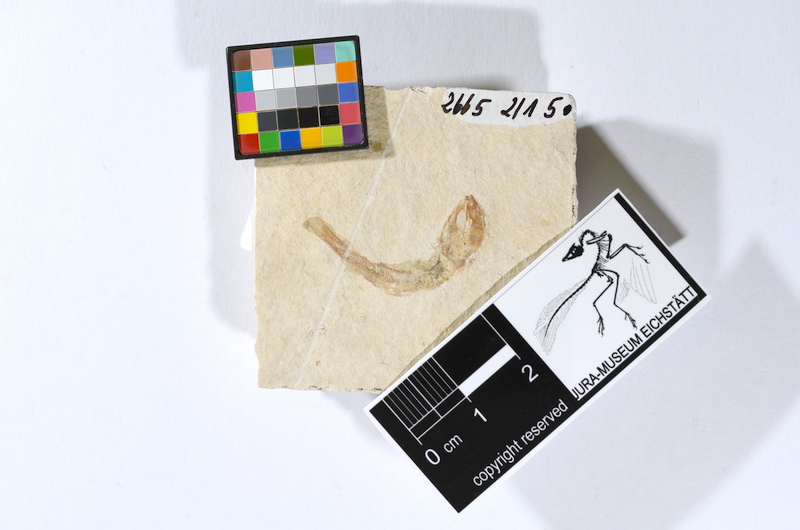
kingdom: Animalia
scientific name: Animalia
